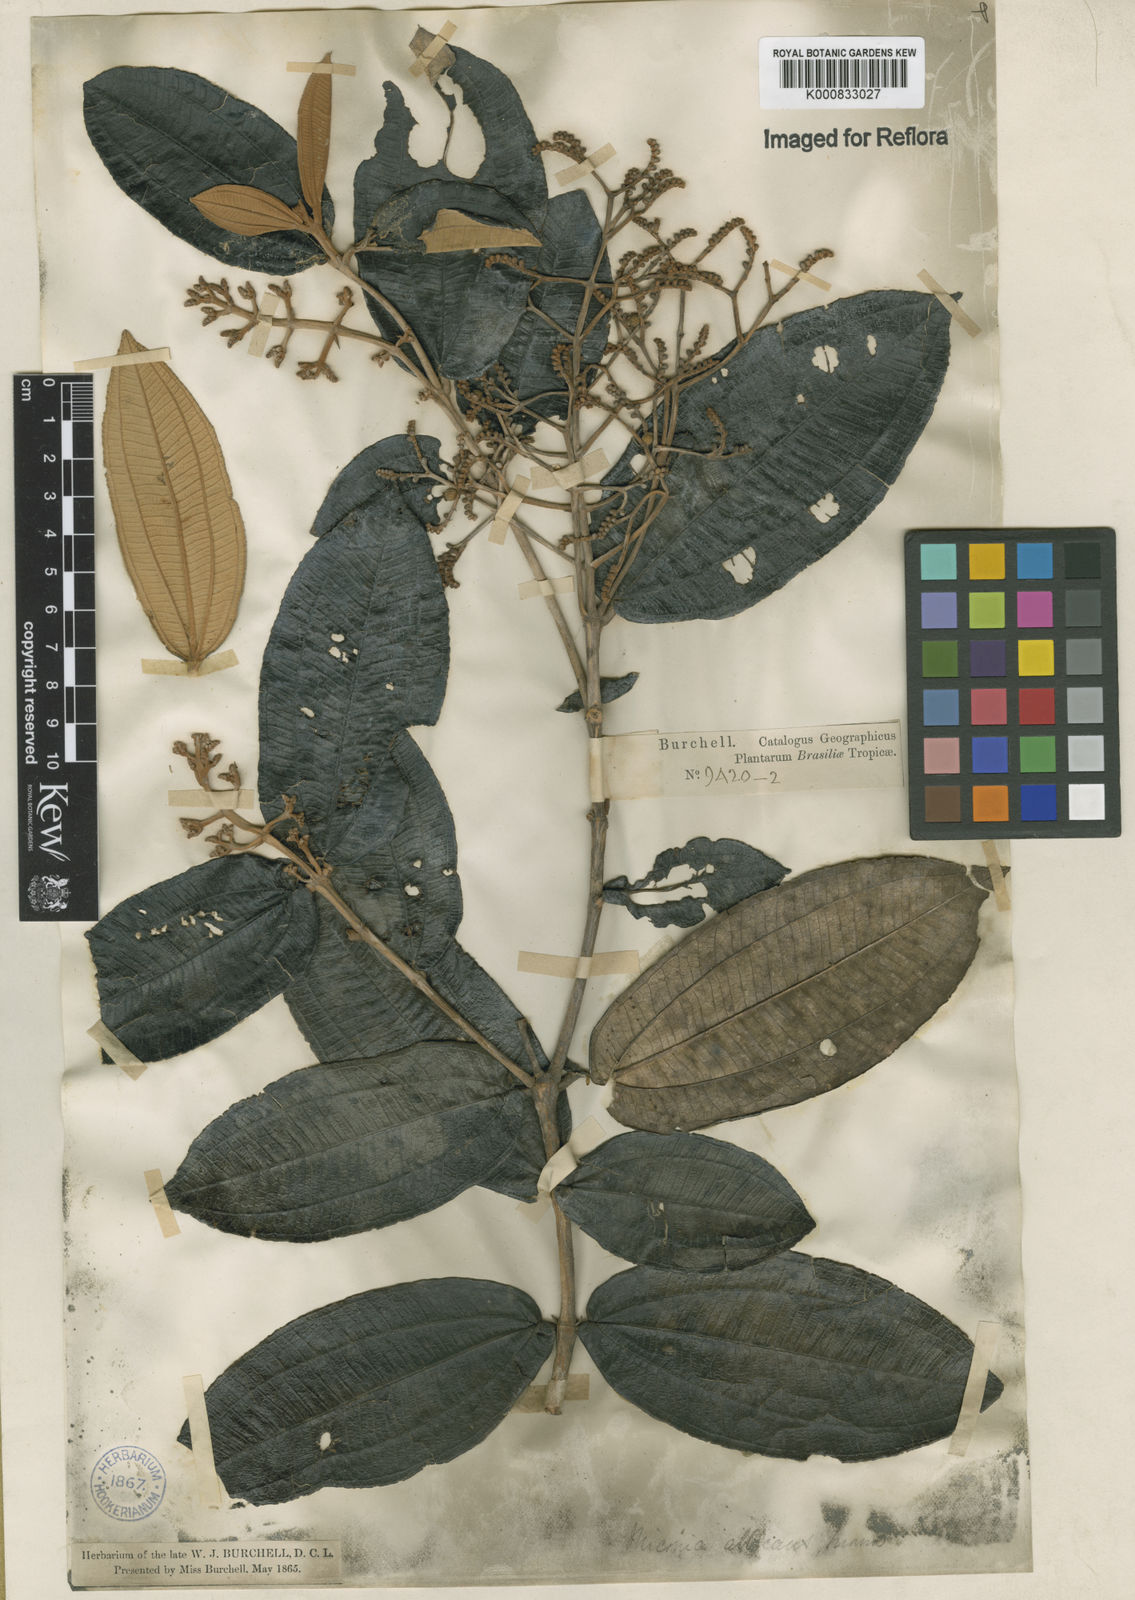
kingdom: Plantae
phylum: Tracheophyta
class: Magnoliopsida
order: Myrtales
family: Melastomataceae
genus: Miconia
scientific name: Miconia albicans
